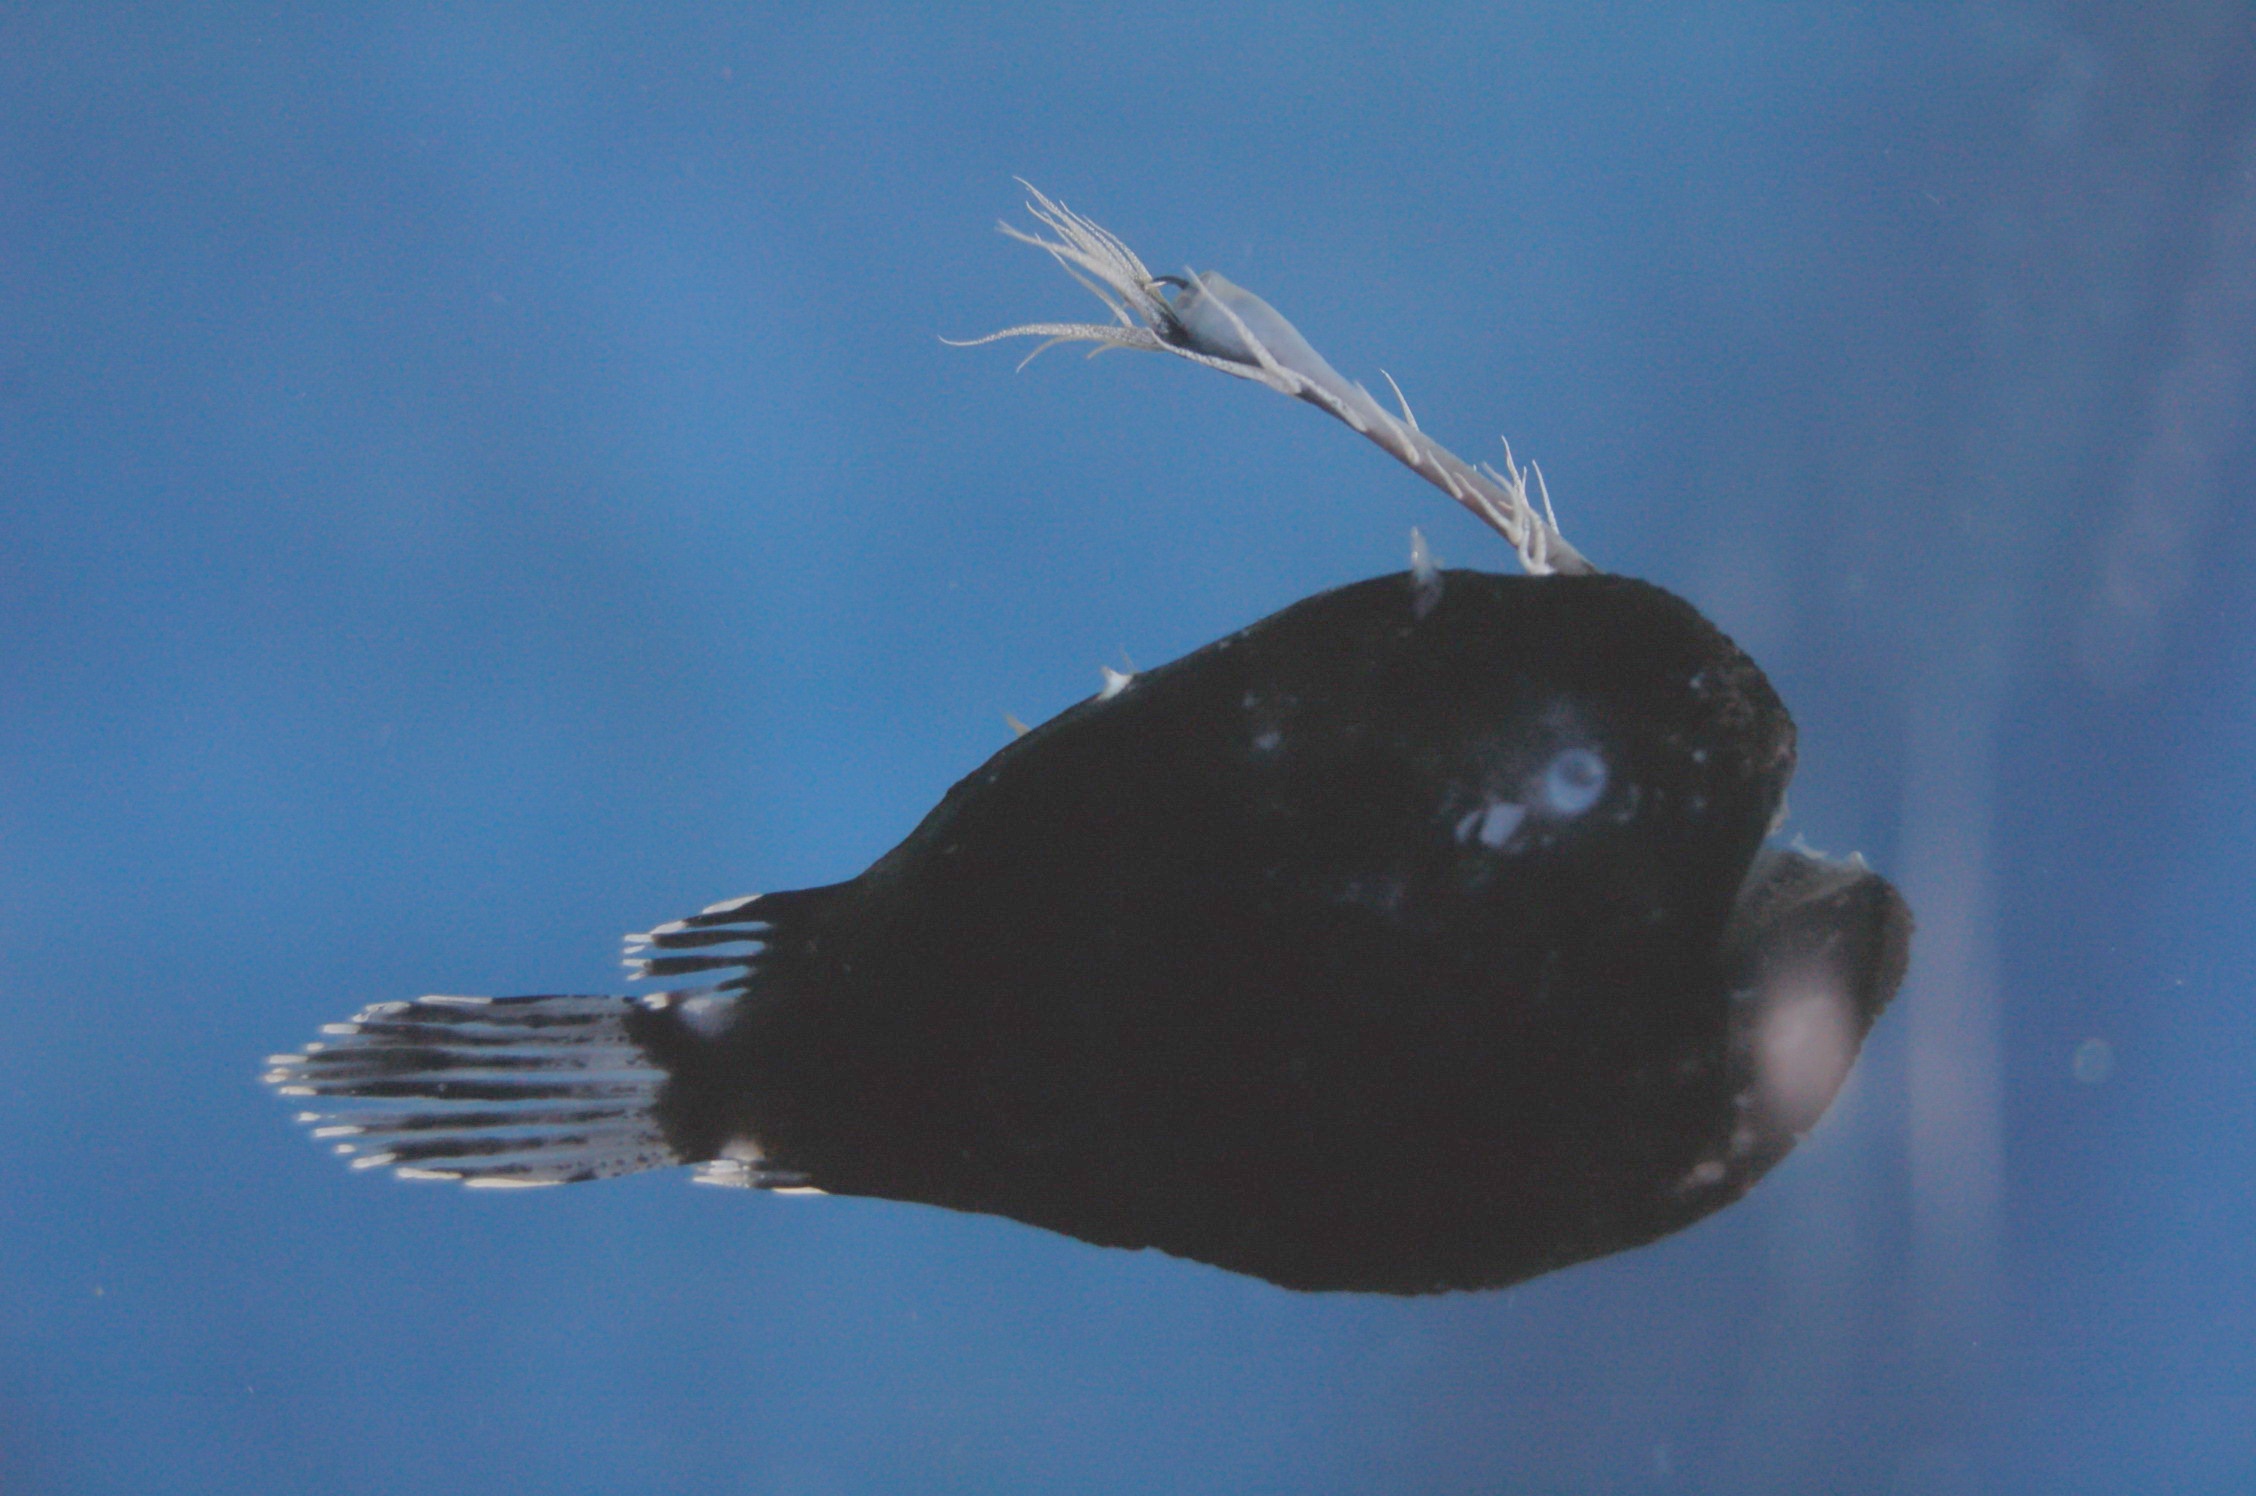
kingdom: Animalia
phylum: Chordata
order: Lophiiformes
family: Himantolophidae
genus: Himantolophus
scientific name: Himantolophus melanolophus
